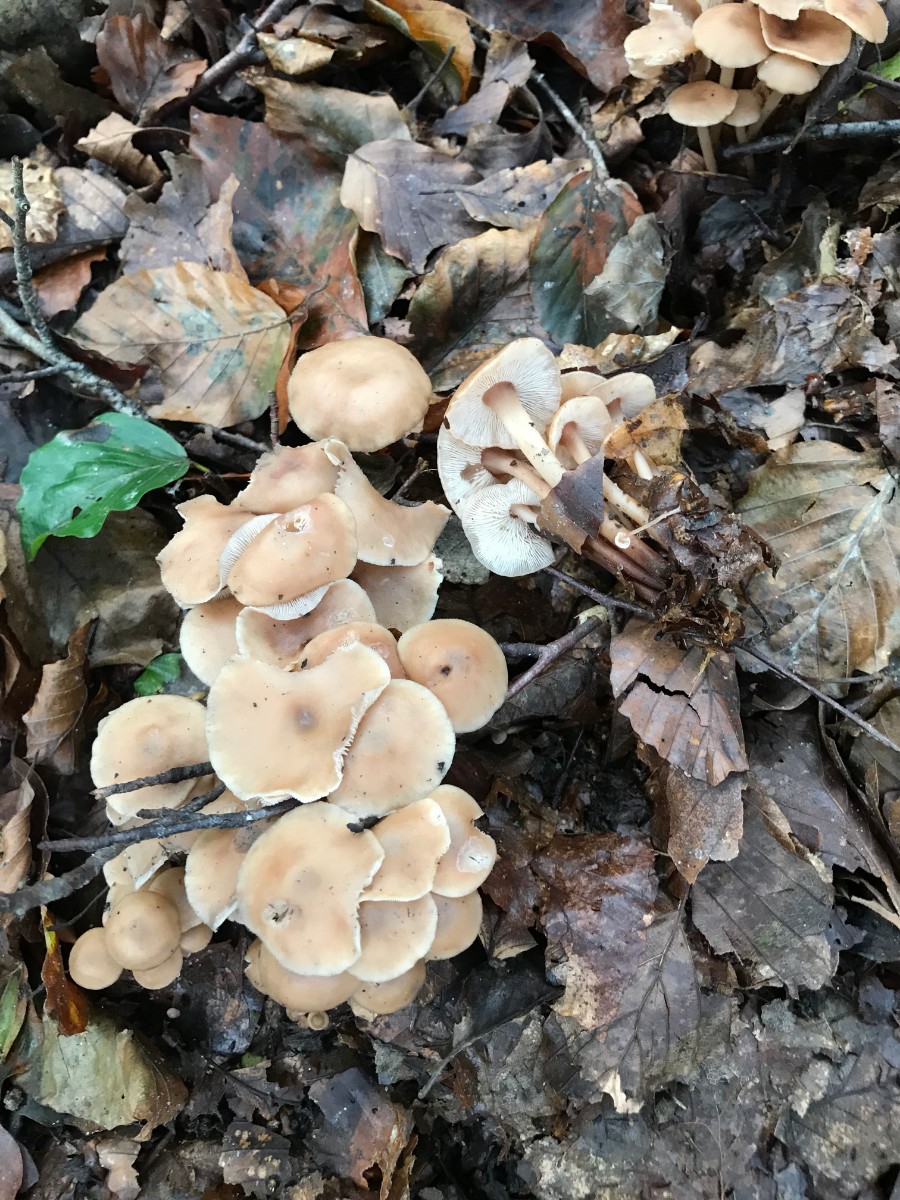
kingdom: Fungi
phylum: Basidiomycota
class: Agaricomycetes
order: Agaricales
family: Omphalotaceae
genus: Collybiopsis
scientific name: Collybiopsis confluens
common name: knippe-fladhat
